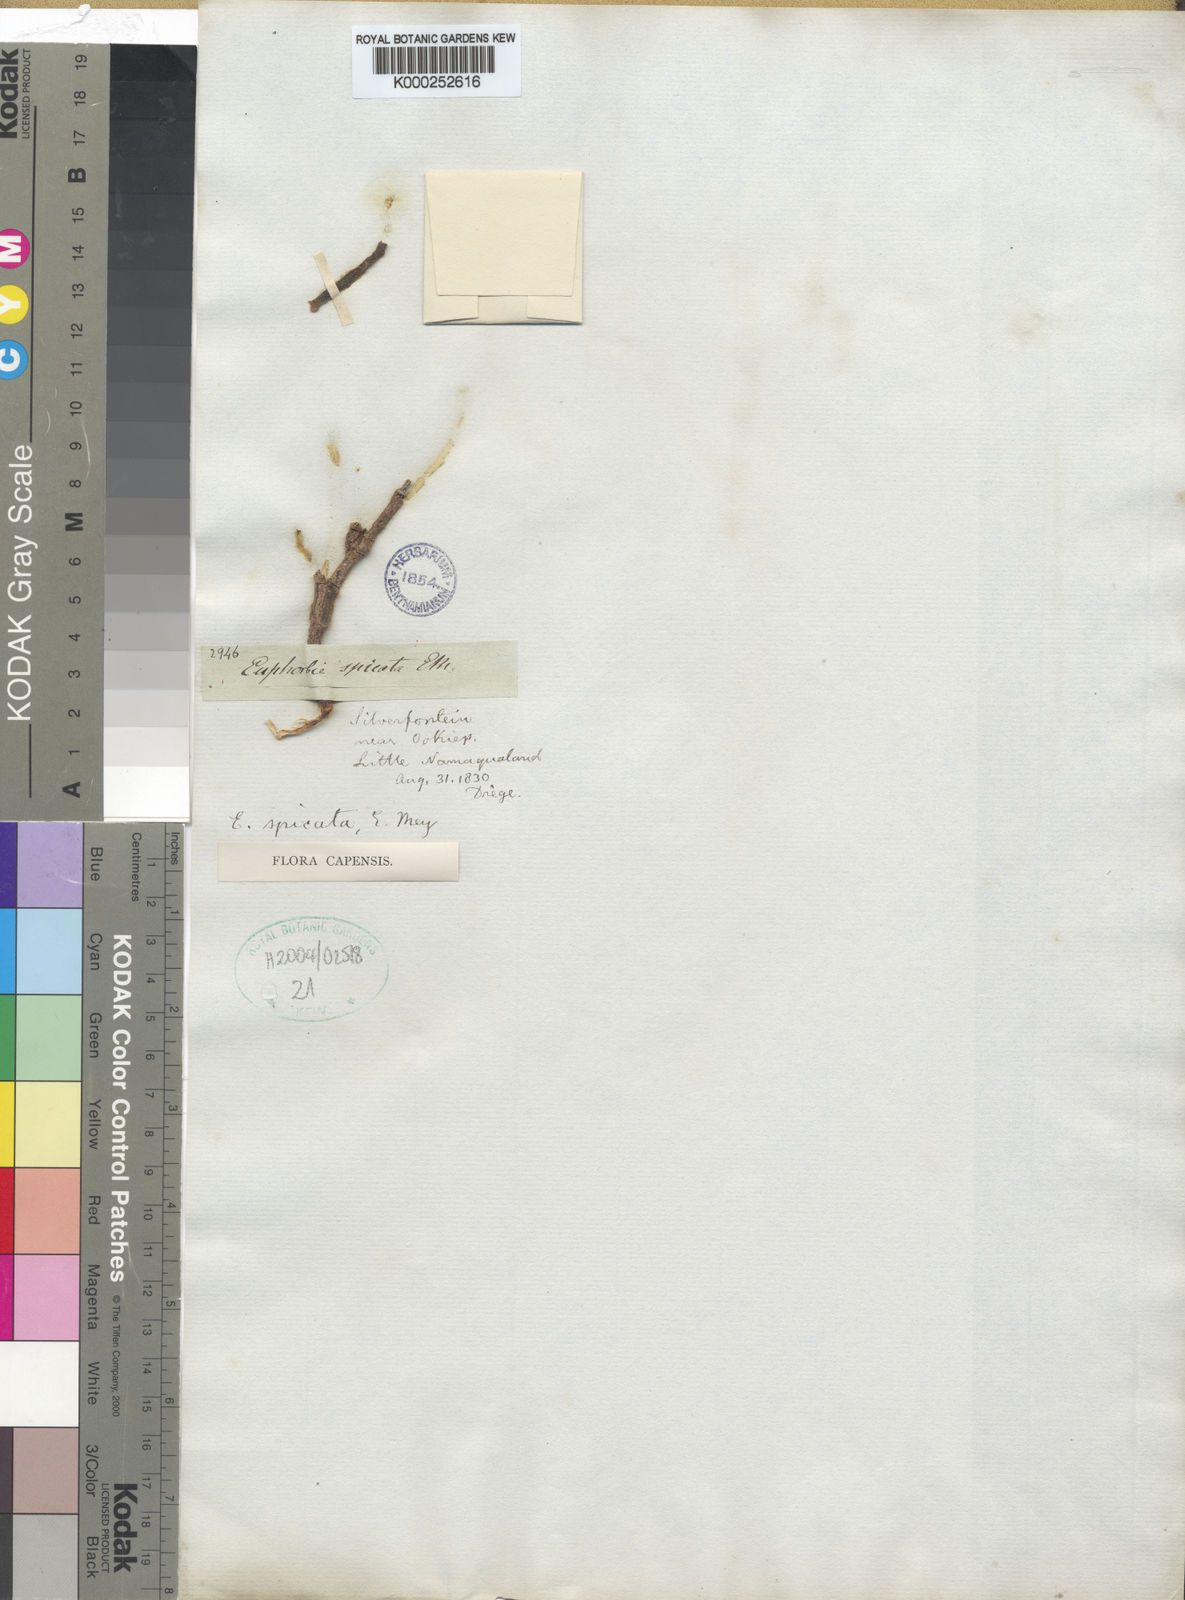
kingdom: Plantae
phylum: Tracheophyta
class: Magnoliopsida
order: Malpighiales
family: Euphorbiaceae
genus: Euphorbia
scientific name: Euphorbia muricata
